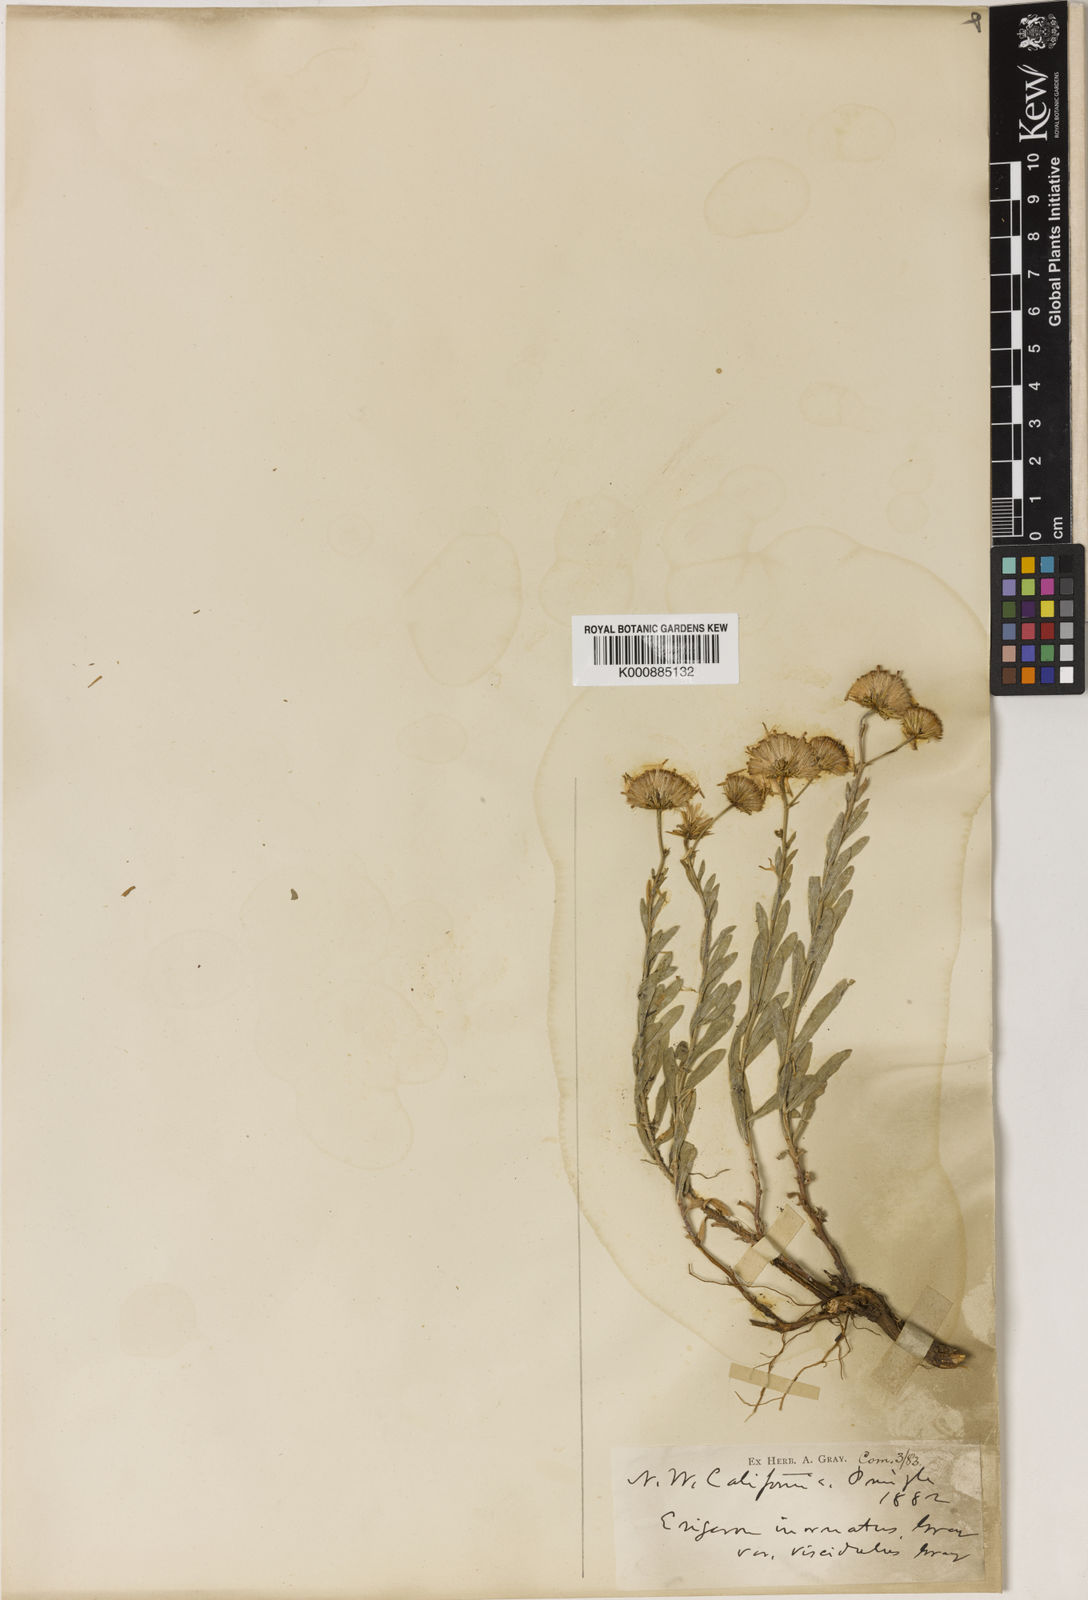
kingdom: Plantae
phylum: Tracheophyta
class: Magnoliopsida
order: Asterales
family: Asteraceae
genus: Erigeron
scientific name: Erigeron
